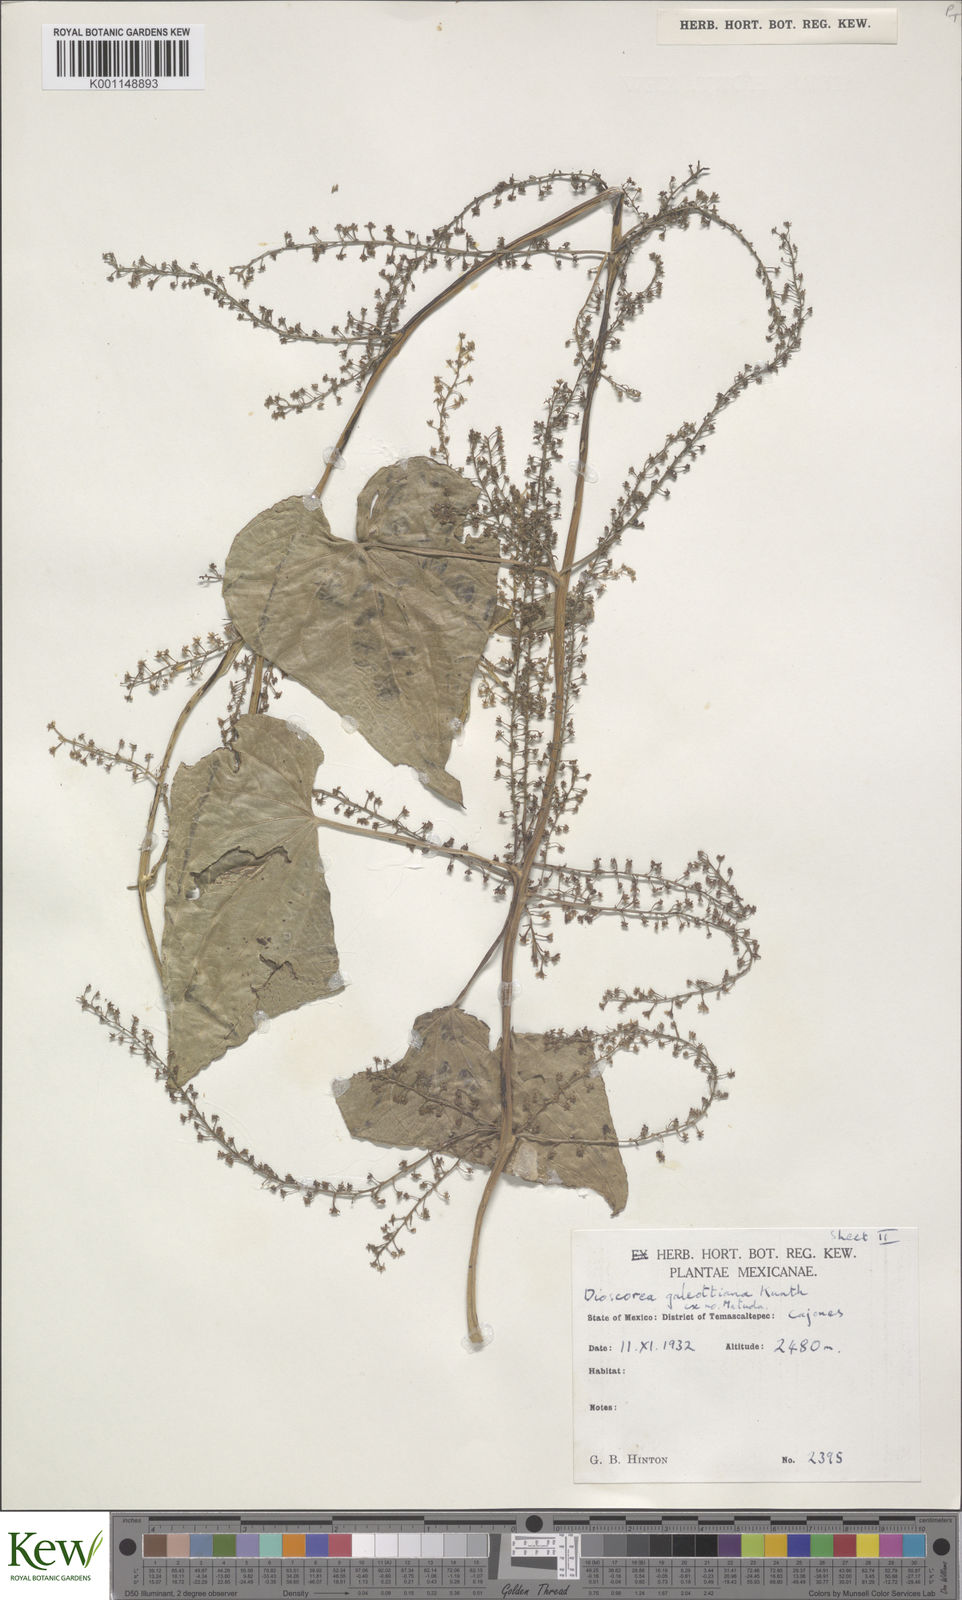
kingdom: Plantae
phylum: Tracheophyta
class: Liliopsida
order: Dioscoreales
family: Dioscoreaceae
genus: Dioscorea
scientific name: Dioscorea galeottiana
